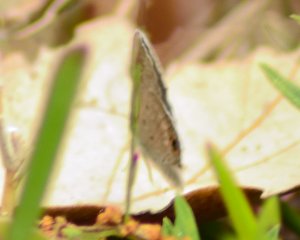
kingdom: Animalia
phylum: Arthropoda
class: Insecta
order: Lepidoptera
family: Lycaenidae
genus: Hemiargus
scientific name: Hemiargus ceraunus
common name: Ceraunus Blue
